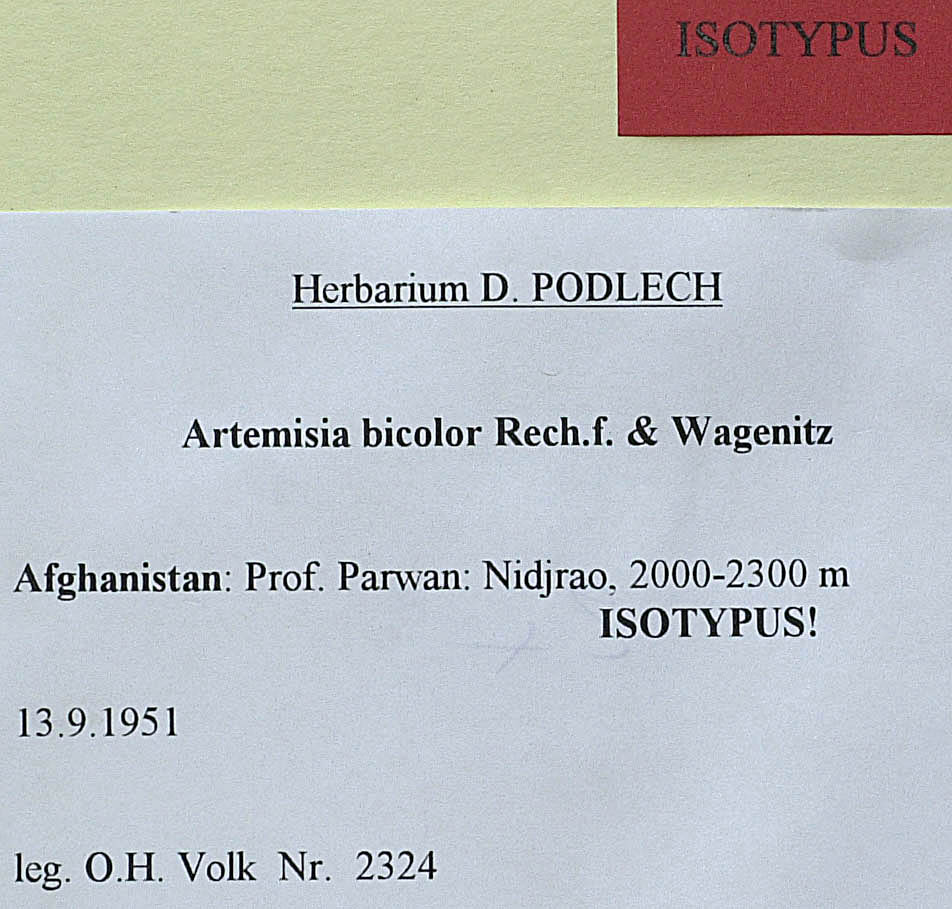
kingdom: Plantae
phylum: Tracheophyta
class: Magnoliopsida
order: Asterales
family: Asteraceae
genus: Artemisia
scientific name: Artemisia bicolor
